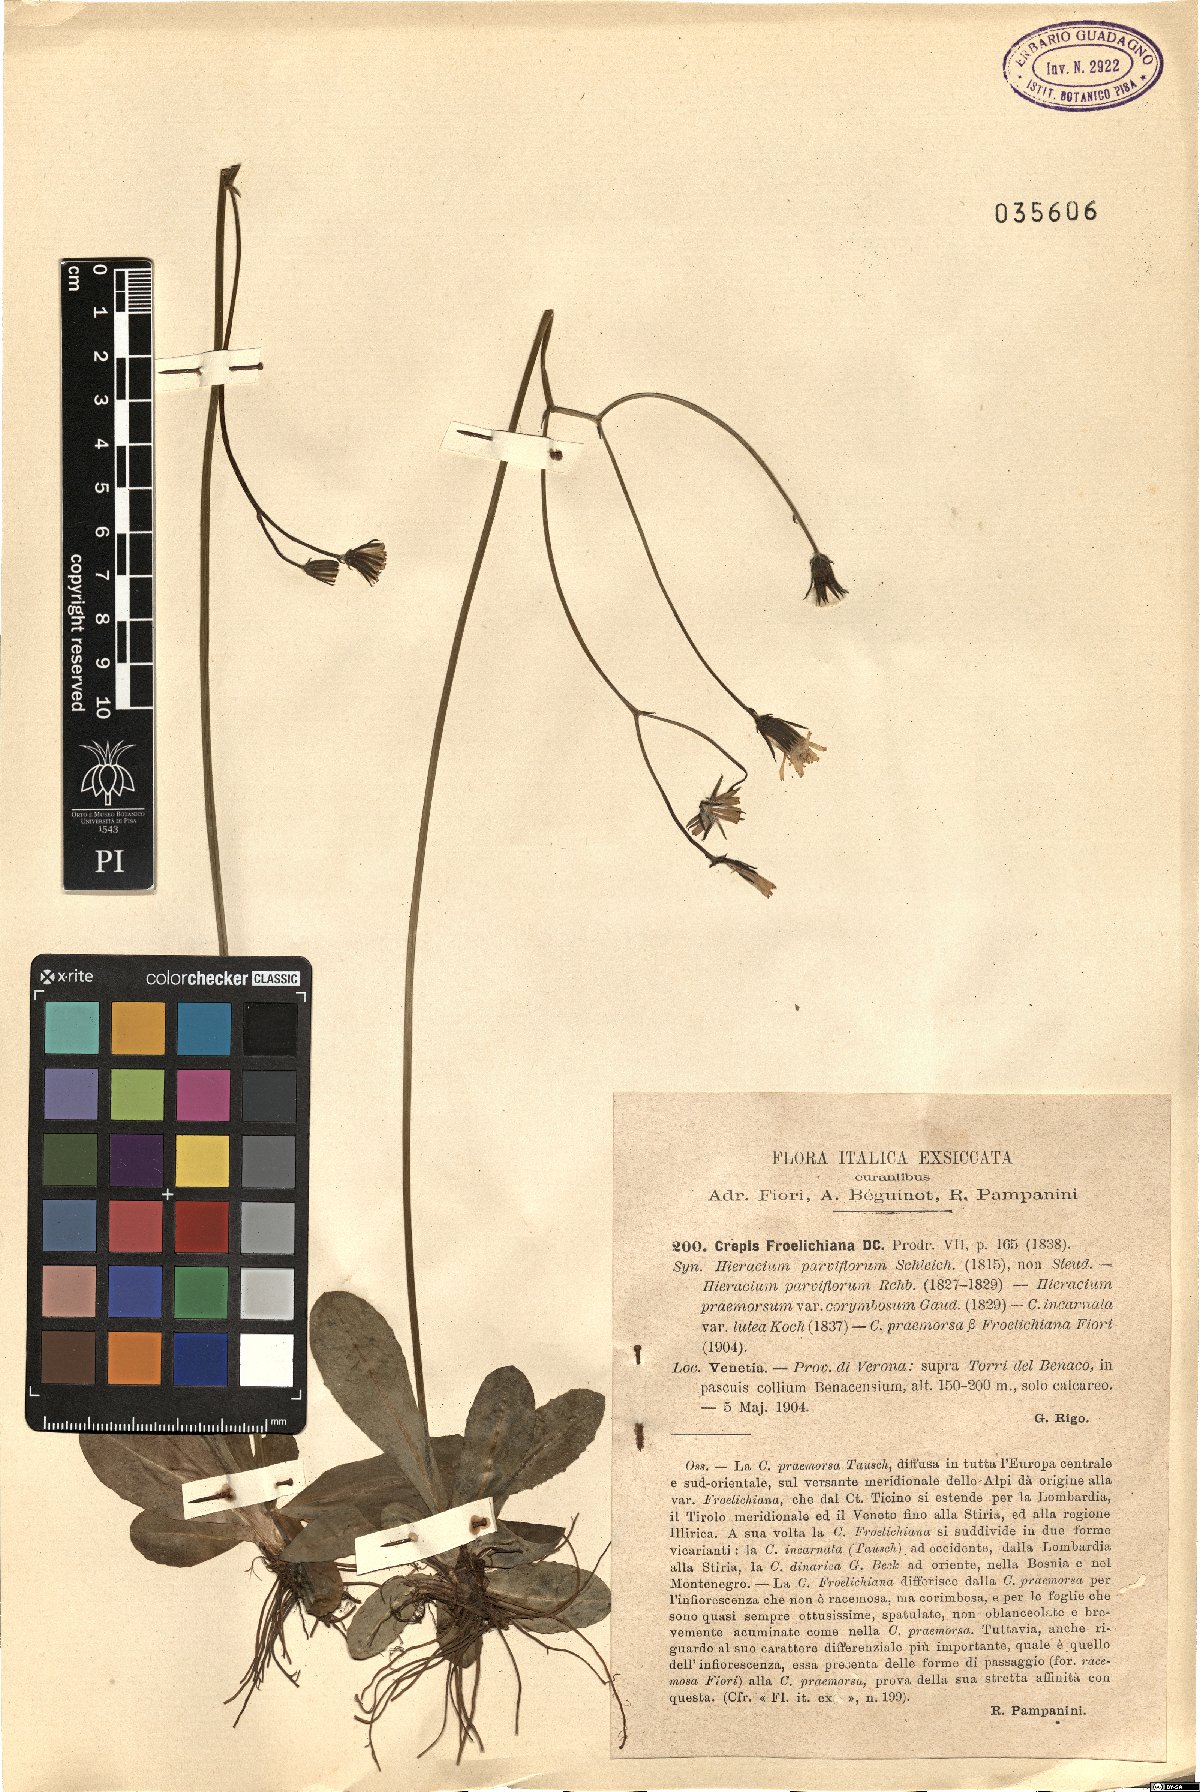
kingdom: Plantae
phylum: Tracheophyta
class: Magnoliopsida
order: Asterales
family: Asteraceae
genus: Crepis
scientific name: Crepis froelichiana
